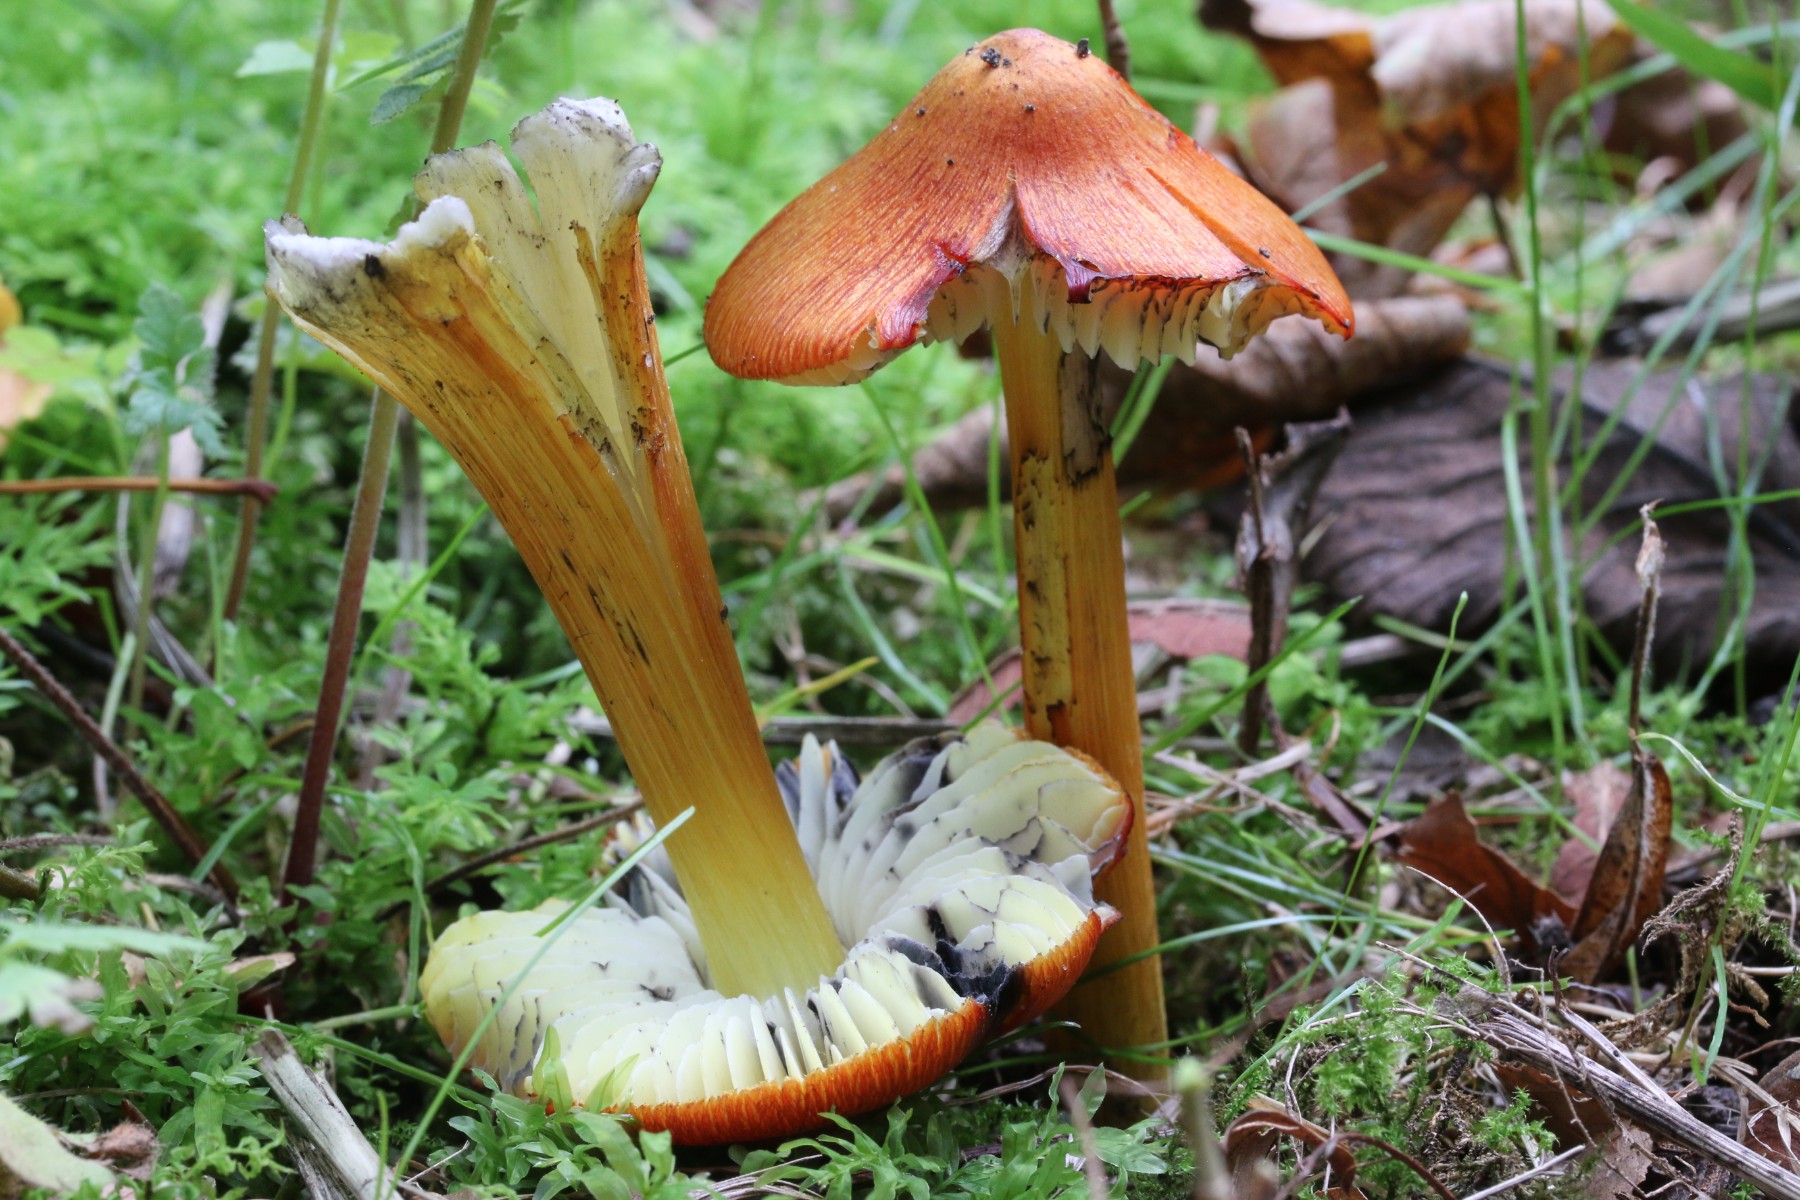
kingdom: Fungi
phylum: Basidiomycota
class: Agaricomycetes
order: Agaricales
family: Hygrophoraceae
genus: Hygrocybe
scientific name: Hygrocybe conica
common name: kegle-vokshat
